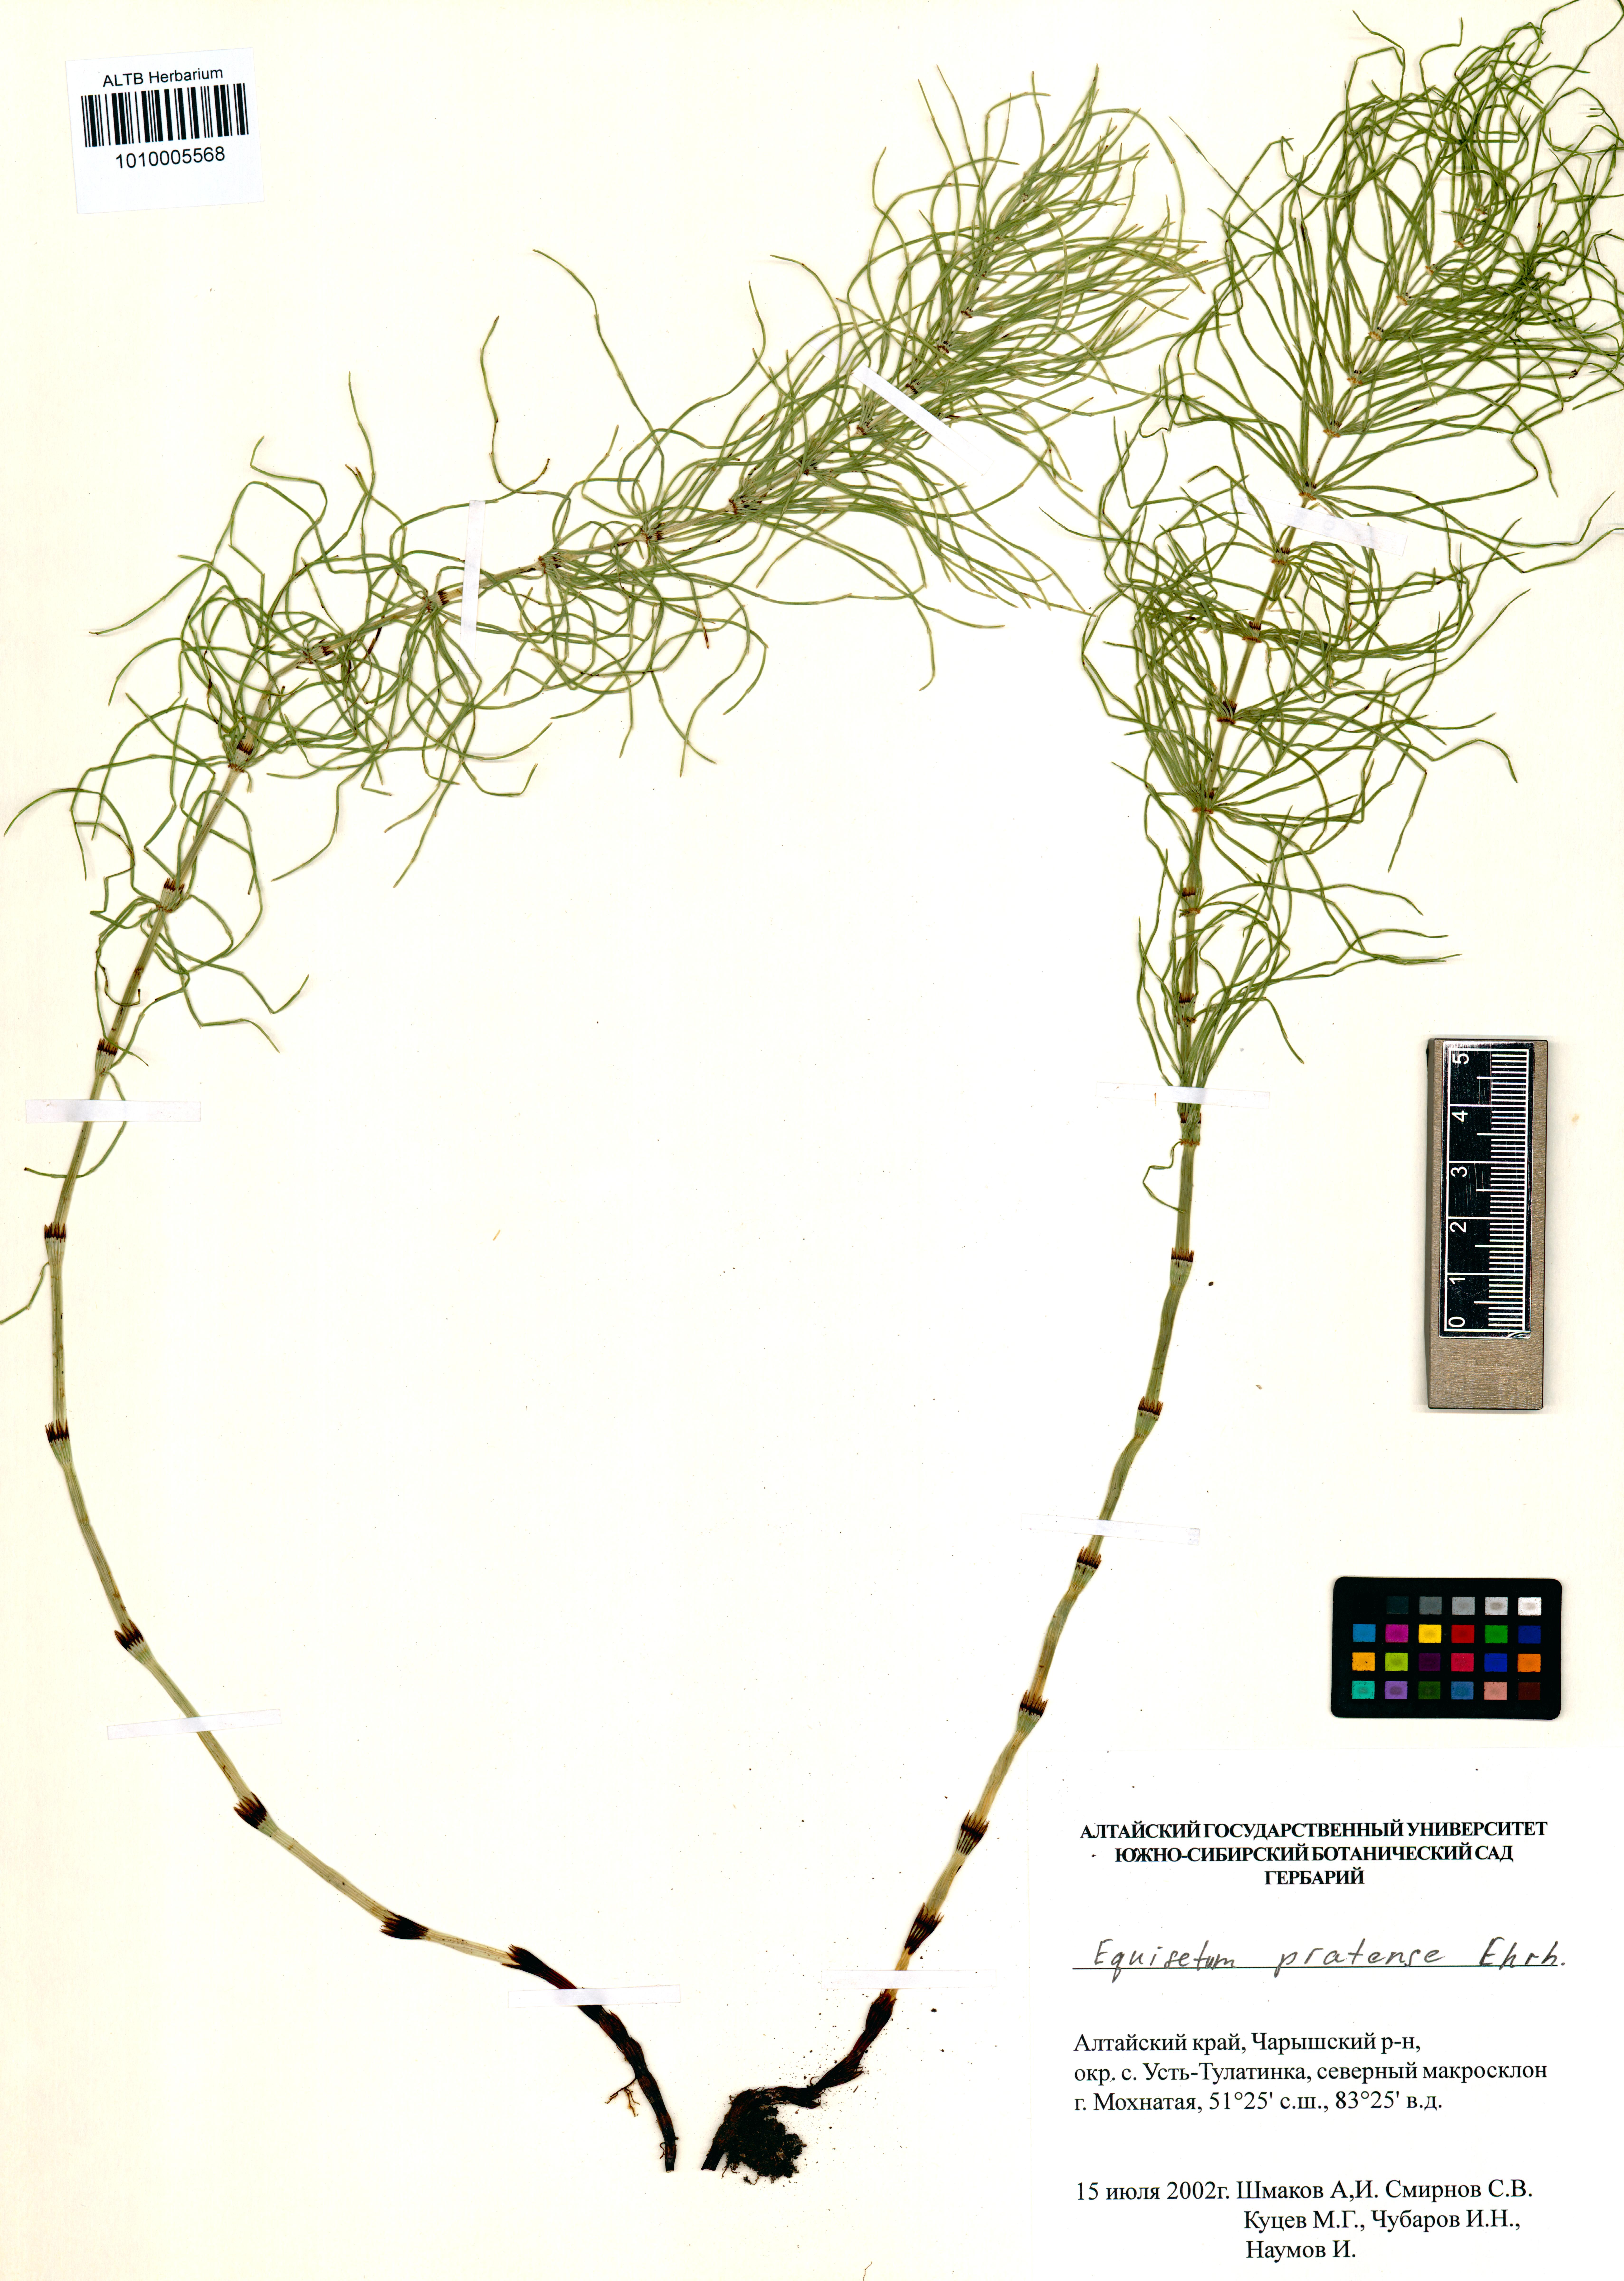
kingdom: Plantae
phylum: Tracheophyta
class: Polypodiopsida
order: Equisetales
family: Equisetaceae
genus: Equisetum
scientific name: Equisetum pratense
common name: Meadow horsetail
